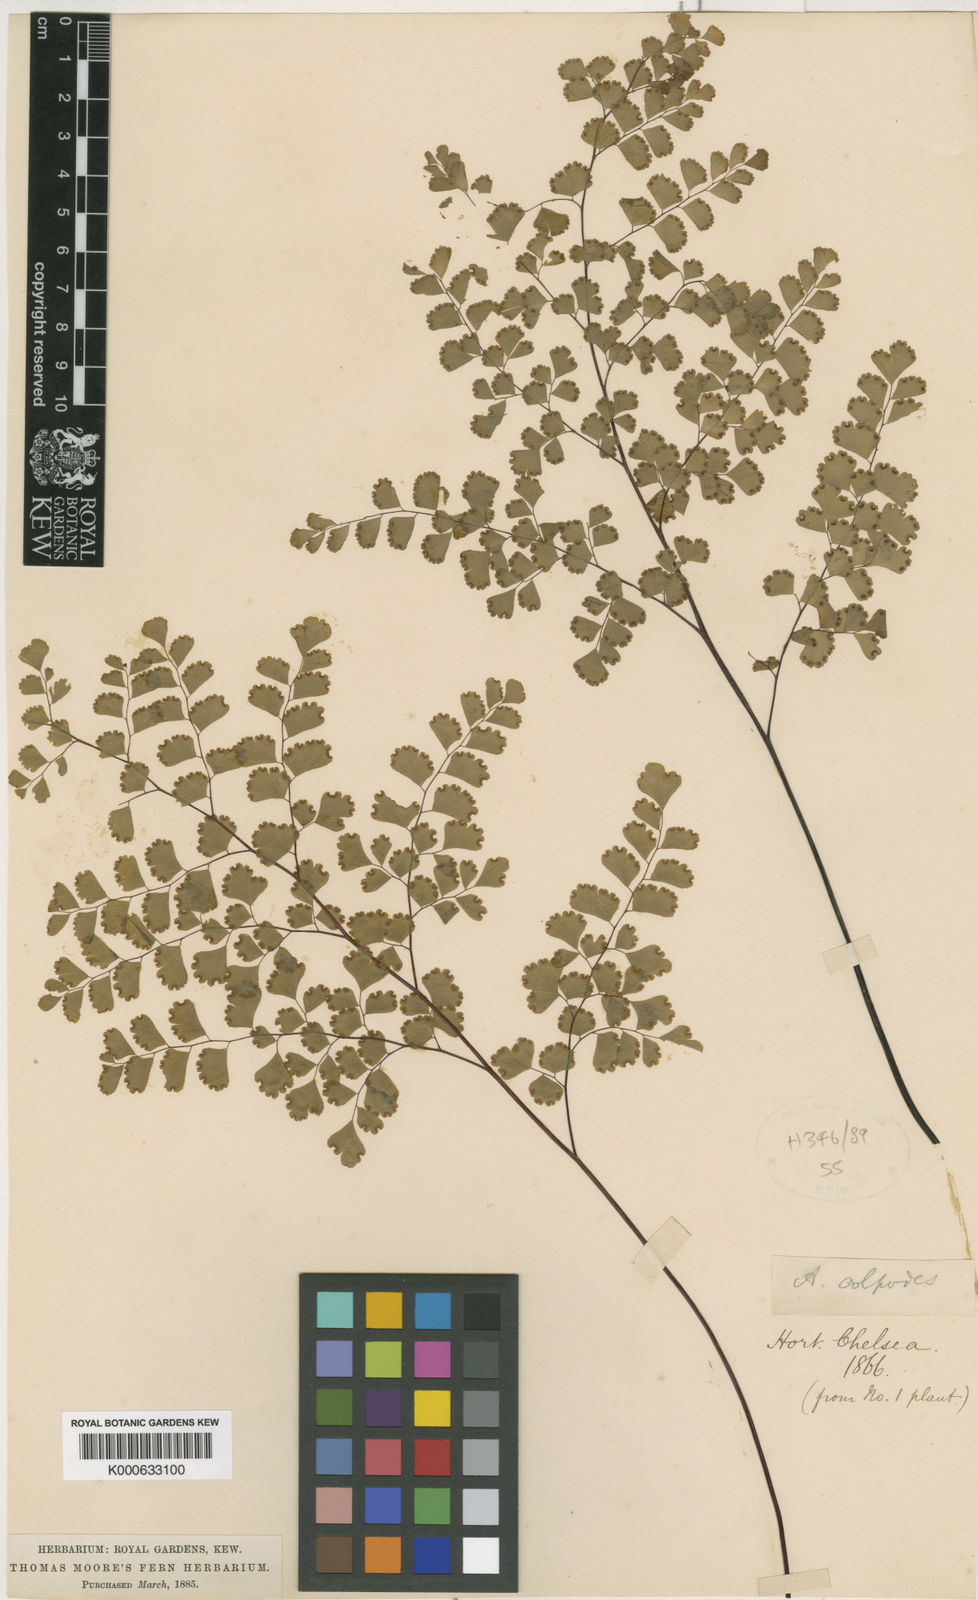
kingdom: Plantae
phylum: Tracheophyta
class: Polypodiopsida
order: Polypodiales
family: Pteridaceae
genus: Adiantum
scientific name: Adiantum raddianum
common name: Delta maidenhair fern
